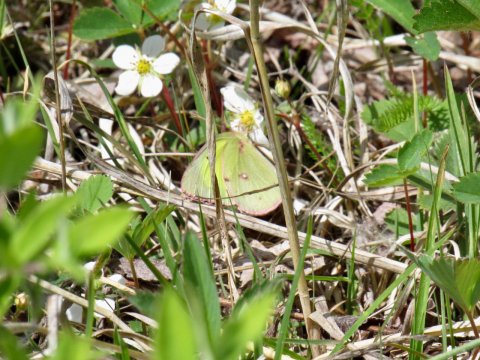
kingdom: Animalia
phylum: Arthropoda
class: Insecta
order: Lepidoptera
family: Pieridae
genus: Colias
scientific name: Colias philodice
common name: Clouded Sulphur
